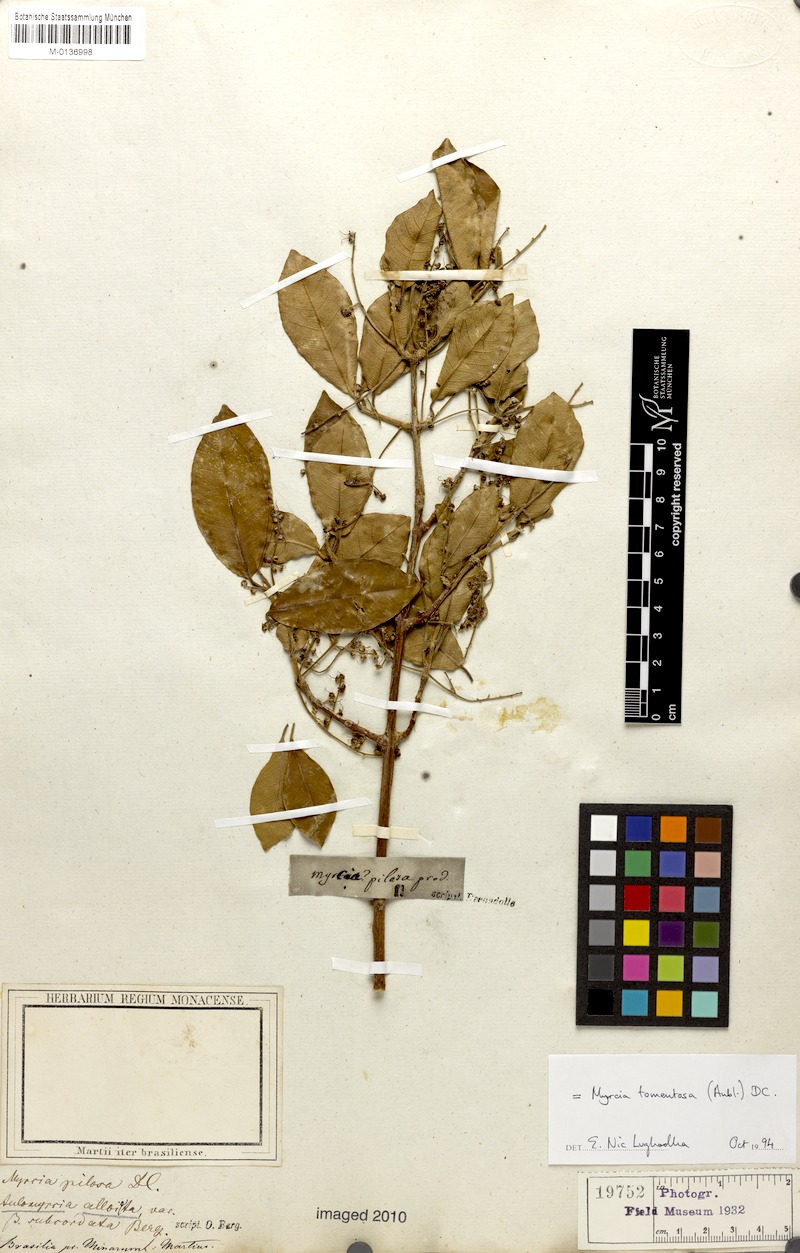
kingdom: Plantae
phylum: Tracheophyta
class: Magnoliopsida
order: Myrtales
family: Myrtaceae
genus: Myrcia
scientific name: Myrcia tomentosa
